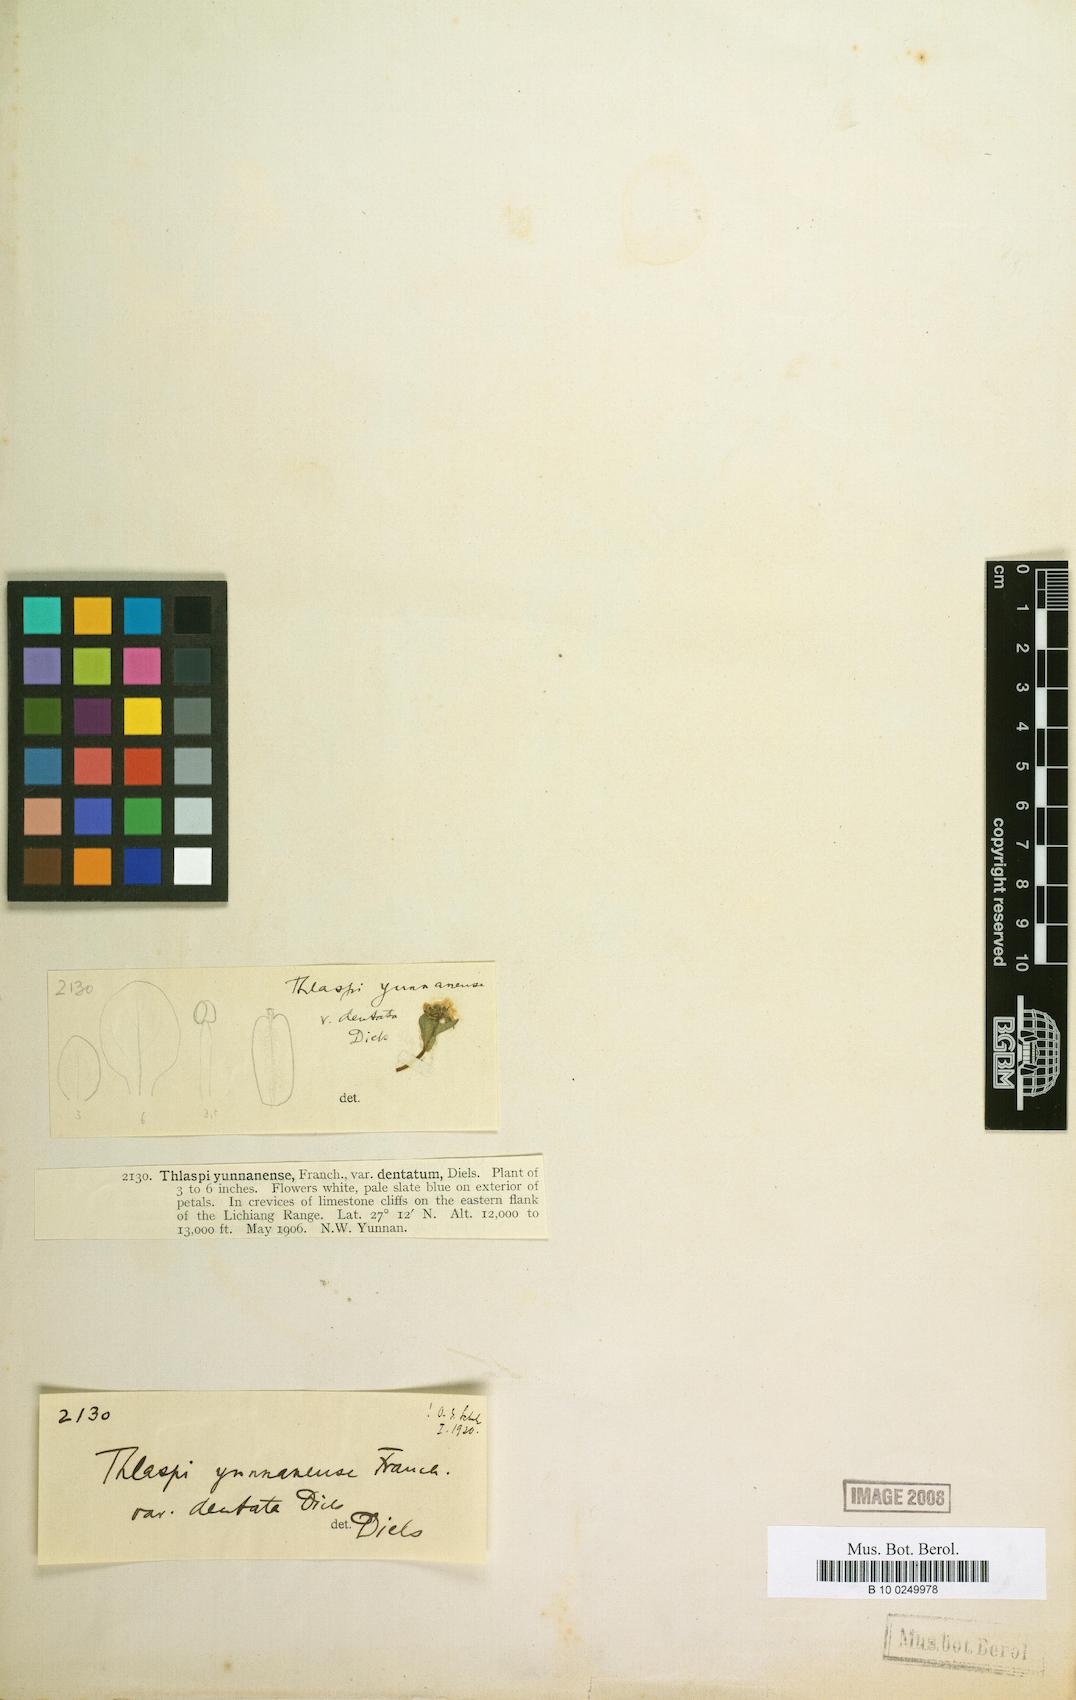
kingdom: Plantae
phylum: Tracheophyta
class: Magnoliopsida
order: Brassicales
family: Brassicaceae
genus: Noccaea
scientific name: Noccaea yunnanensis
